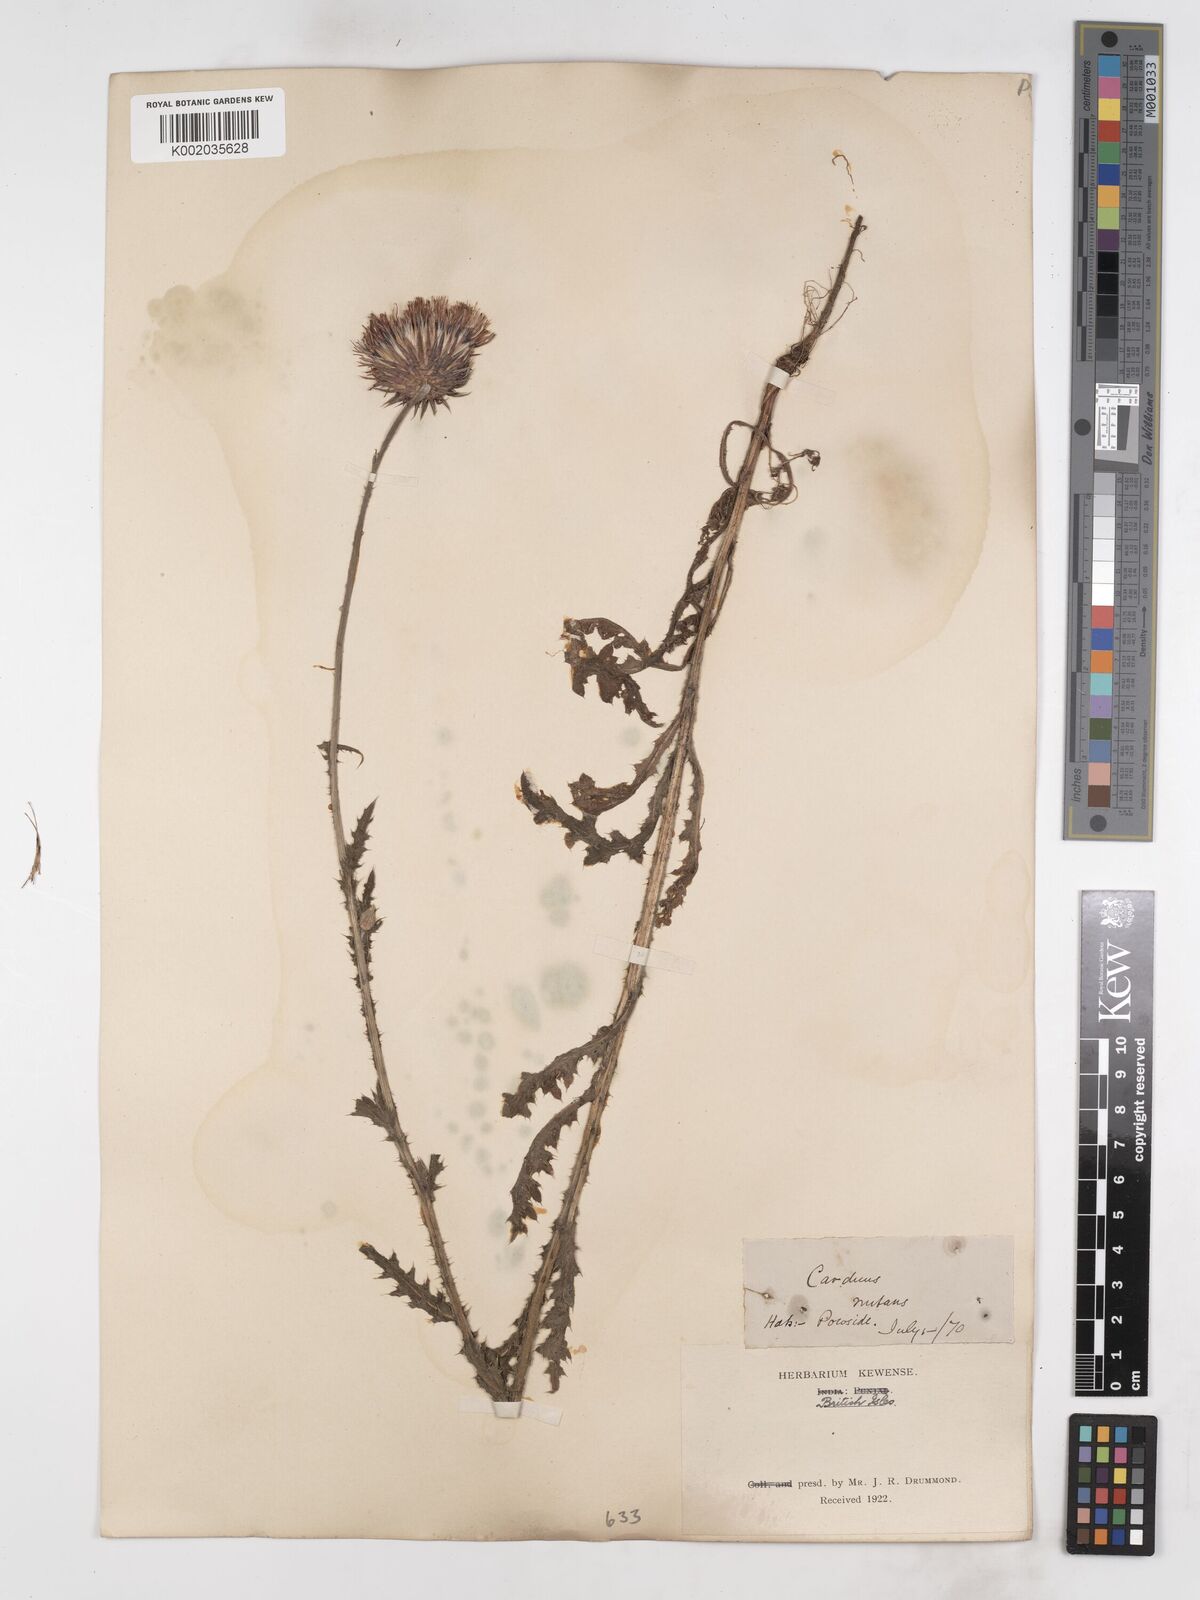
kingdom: Plantae
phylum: Tracheophyta
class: Magnoliopsida
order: Asterales
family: Asteraceae
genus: Carduus
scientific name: Carduus nutans
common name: Musk thistle
